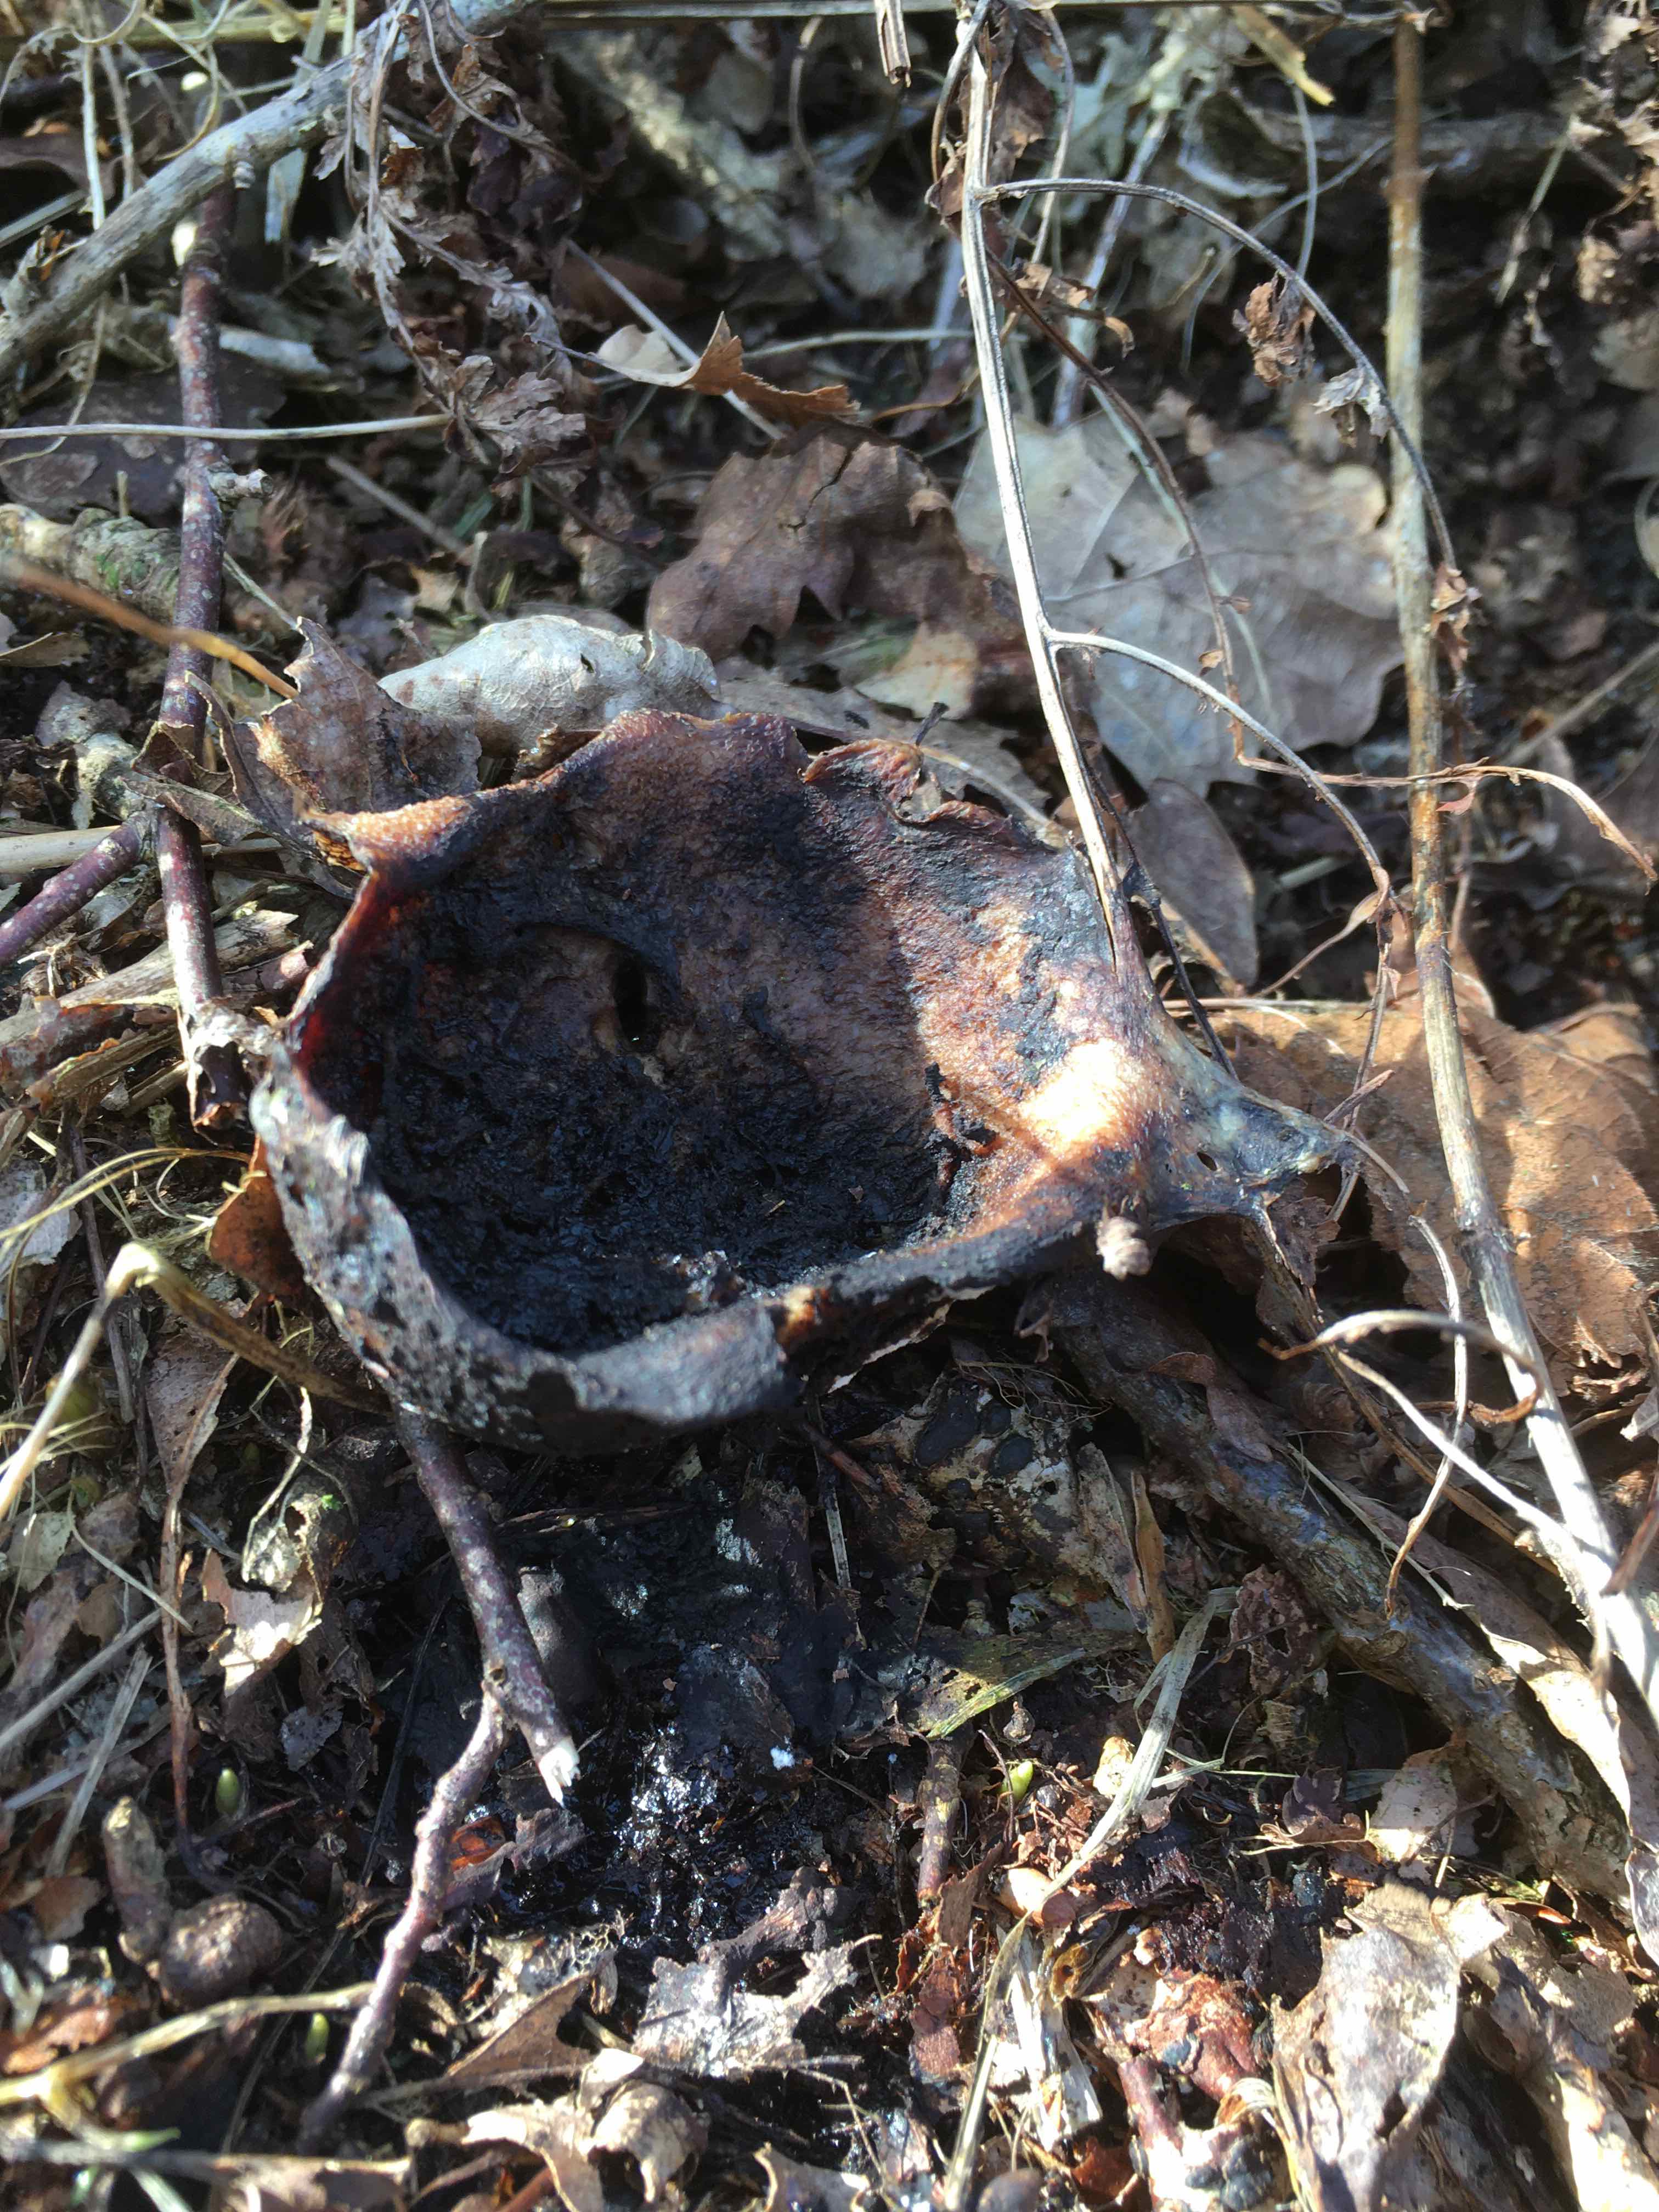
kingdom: Fungi
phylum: Basidiomycota
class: Agaricomycetes
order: Boletales
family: Sclerodermataceae
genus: Scleroderma
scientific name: Scleroderma
